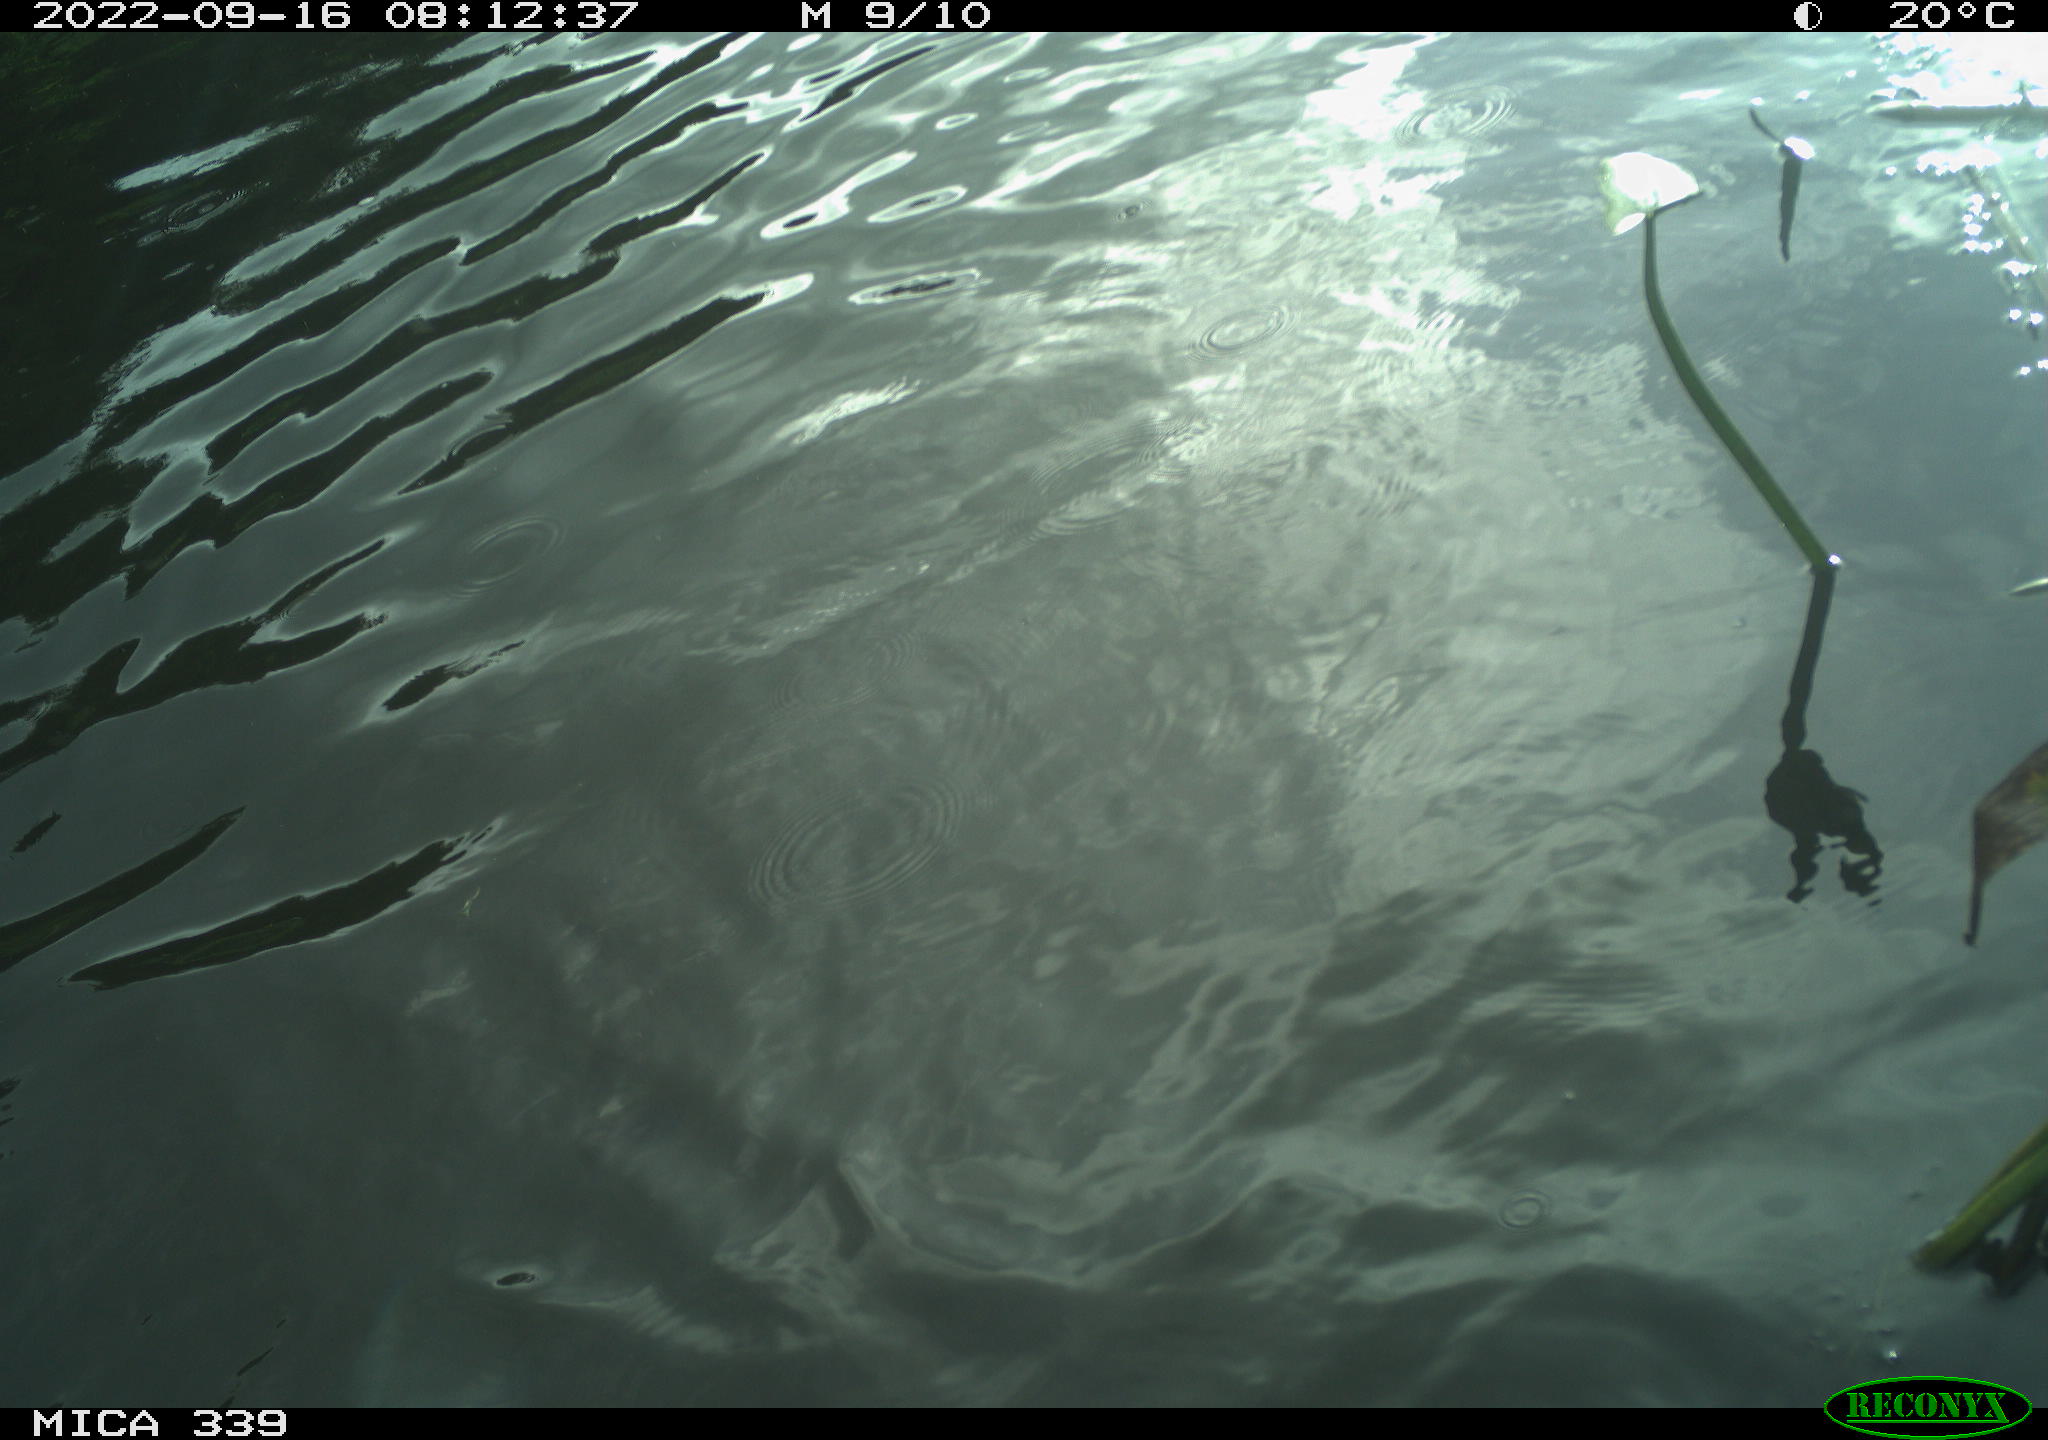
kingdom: Animalia
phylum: Chordata
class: Aves
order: Anseriformes
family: Anatidae
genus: Anas
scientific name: Anas
